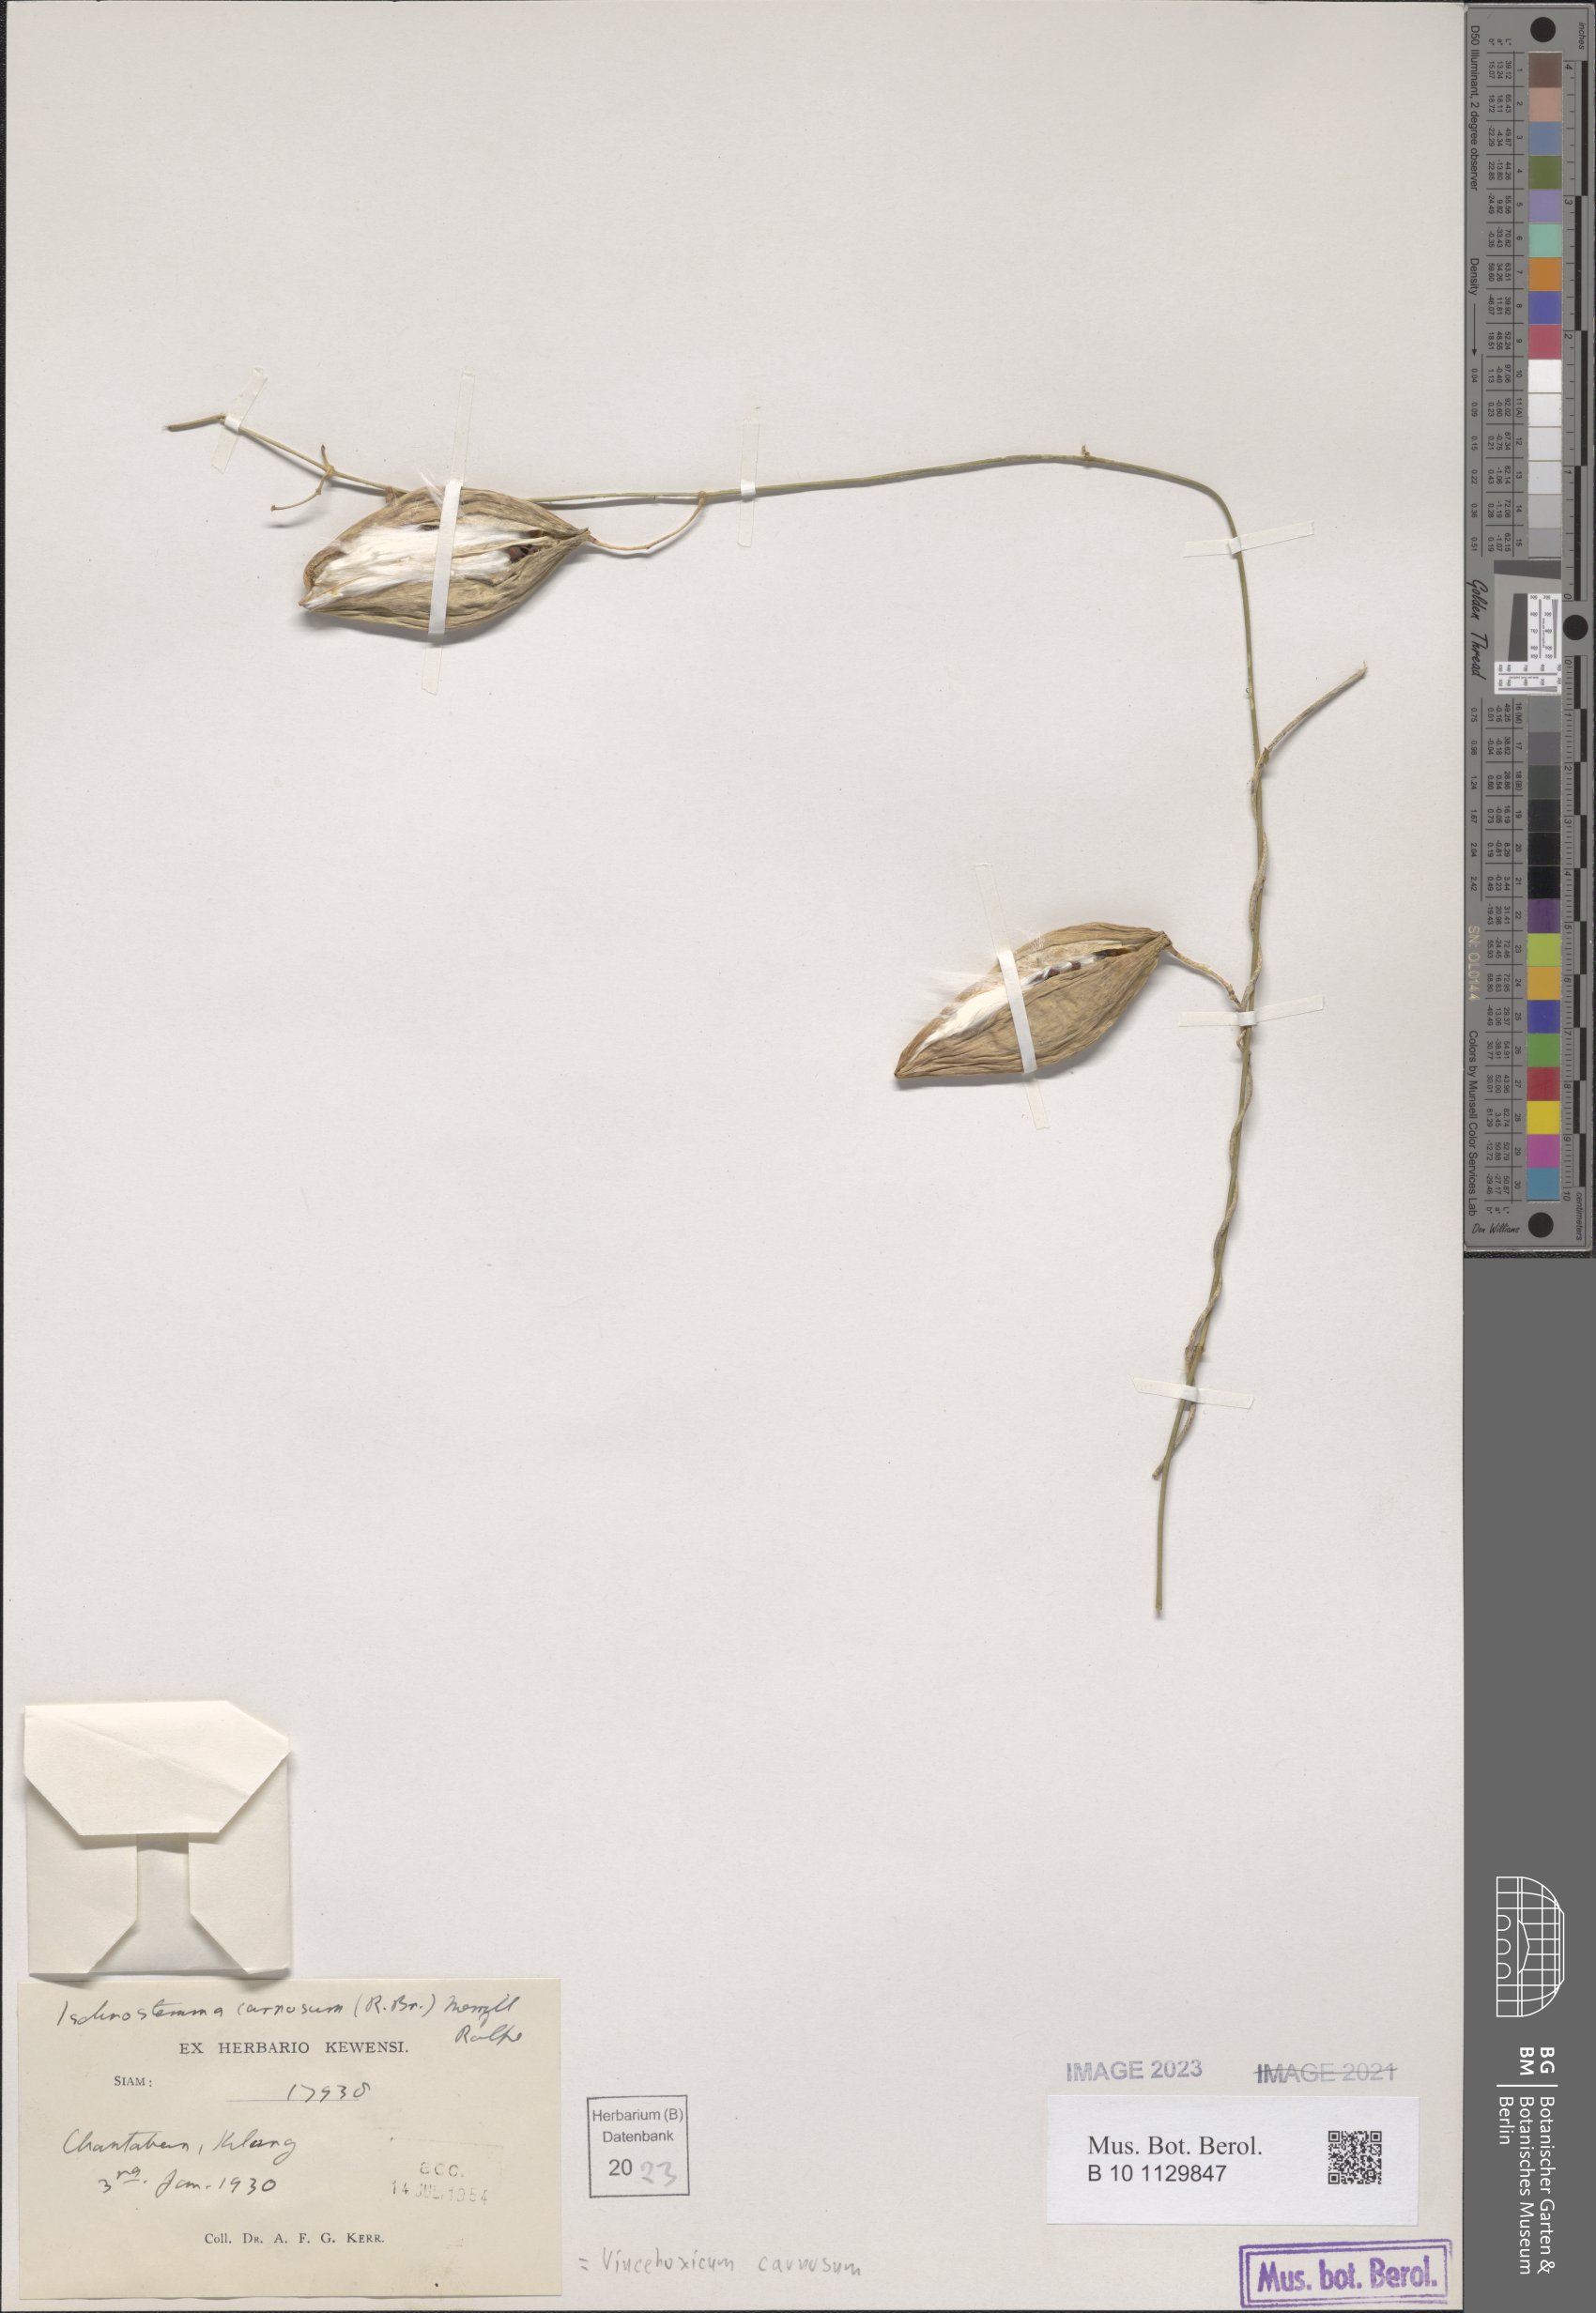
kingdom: Plantae
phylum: Tracheophyta
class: Magnoliopsida
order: Gentianales
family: Apocynaceae
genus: Vincetoxicum
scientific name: Vincetoxicum carnosum
